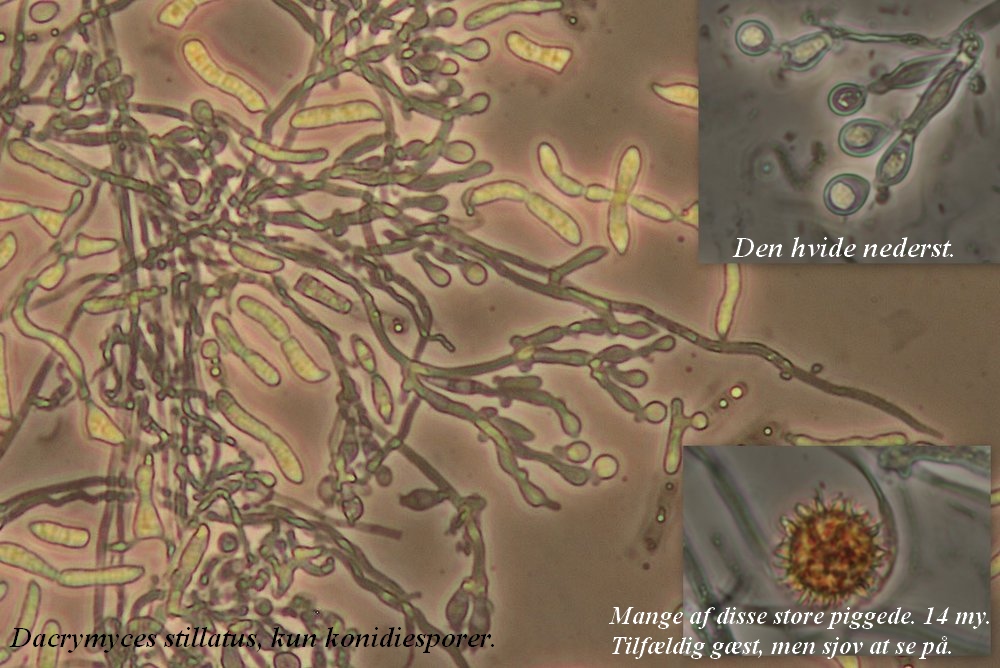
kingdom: Fungi
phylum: Basidiomycota
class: Cystobasidiomycetes
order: Cystobasidiales
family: Cystobasidiaceae
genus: Occultifur
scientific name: Occultifur internus
